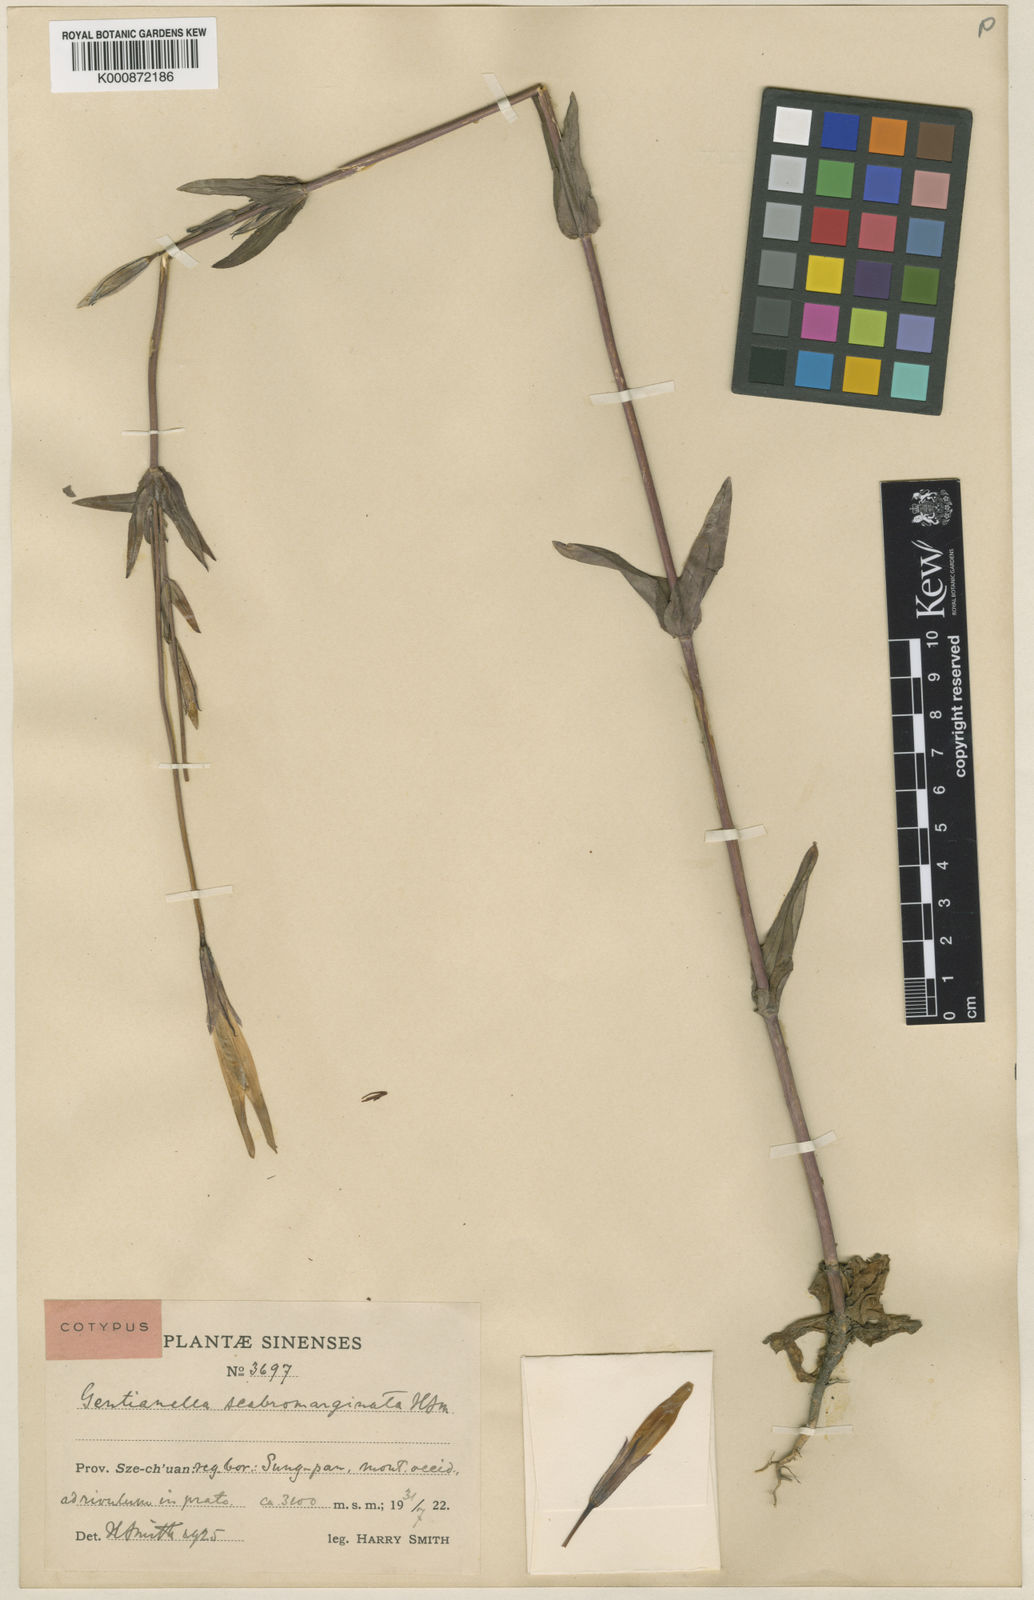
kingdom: Plantae
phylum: Tracheophyta
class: Magnoliopsida
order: Gentianales
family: Gentianaceae
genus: Gentianopsis
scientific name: Gentianopsis paludosa
